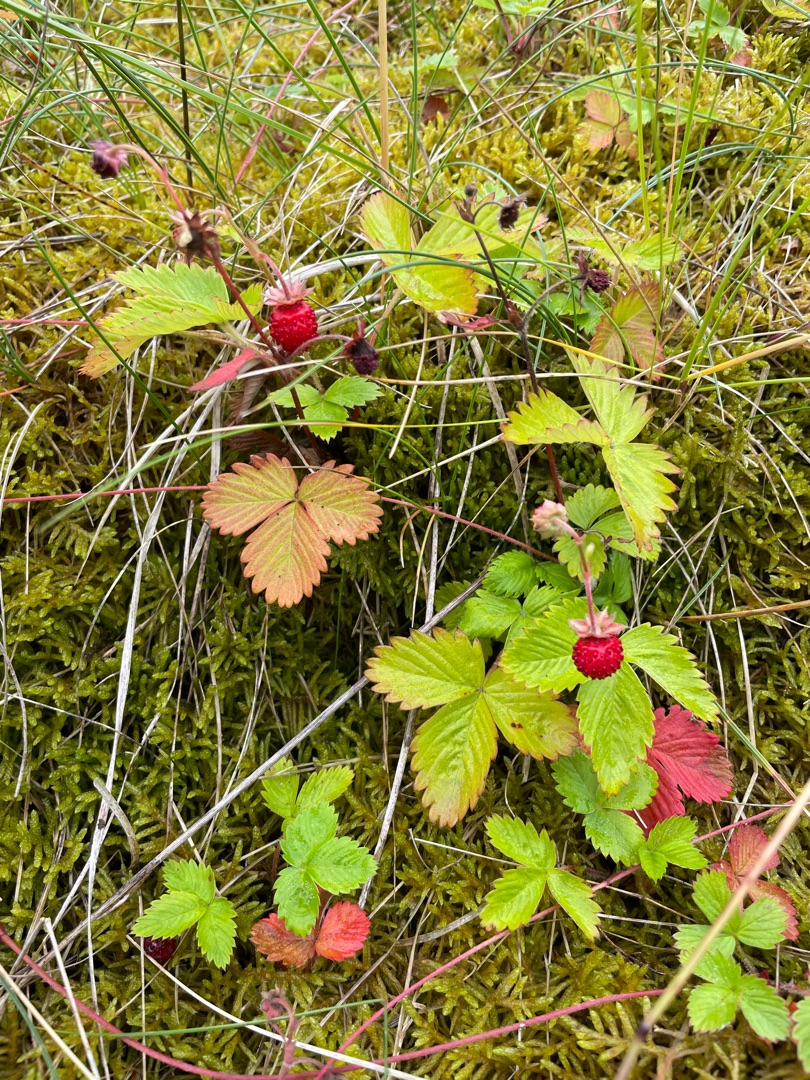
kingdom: Plantae
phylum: Tracheophyta
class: Magnoliopsida
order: Rosales
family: Rosaceae
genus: Fragaria
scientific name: Fragaria vesca
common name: Skov-jordbær
